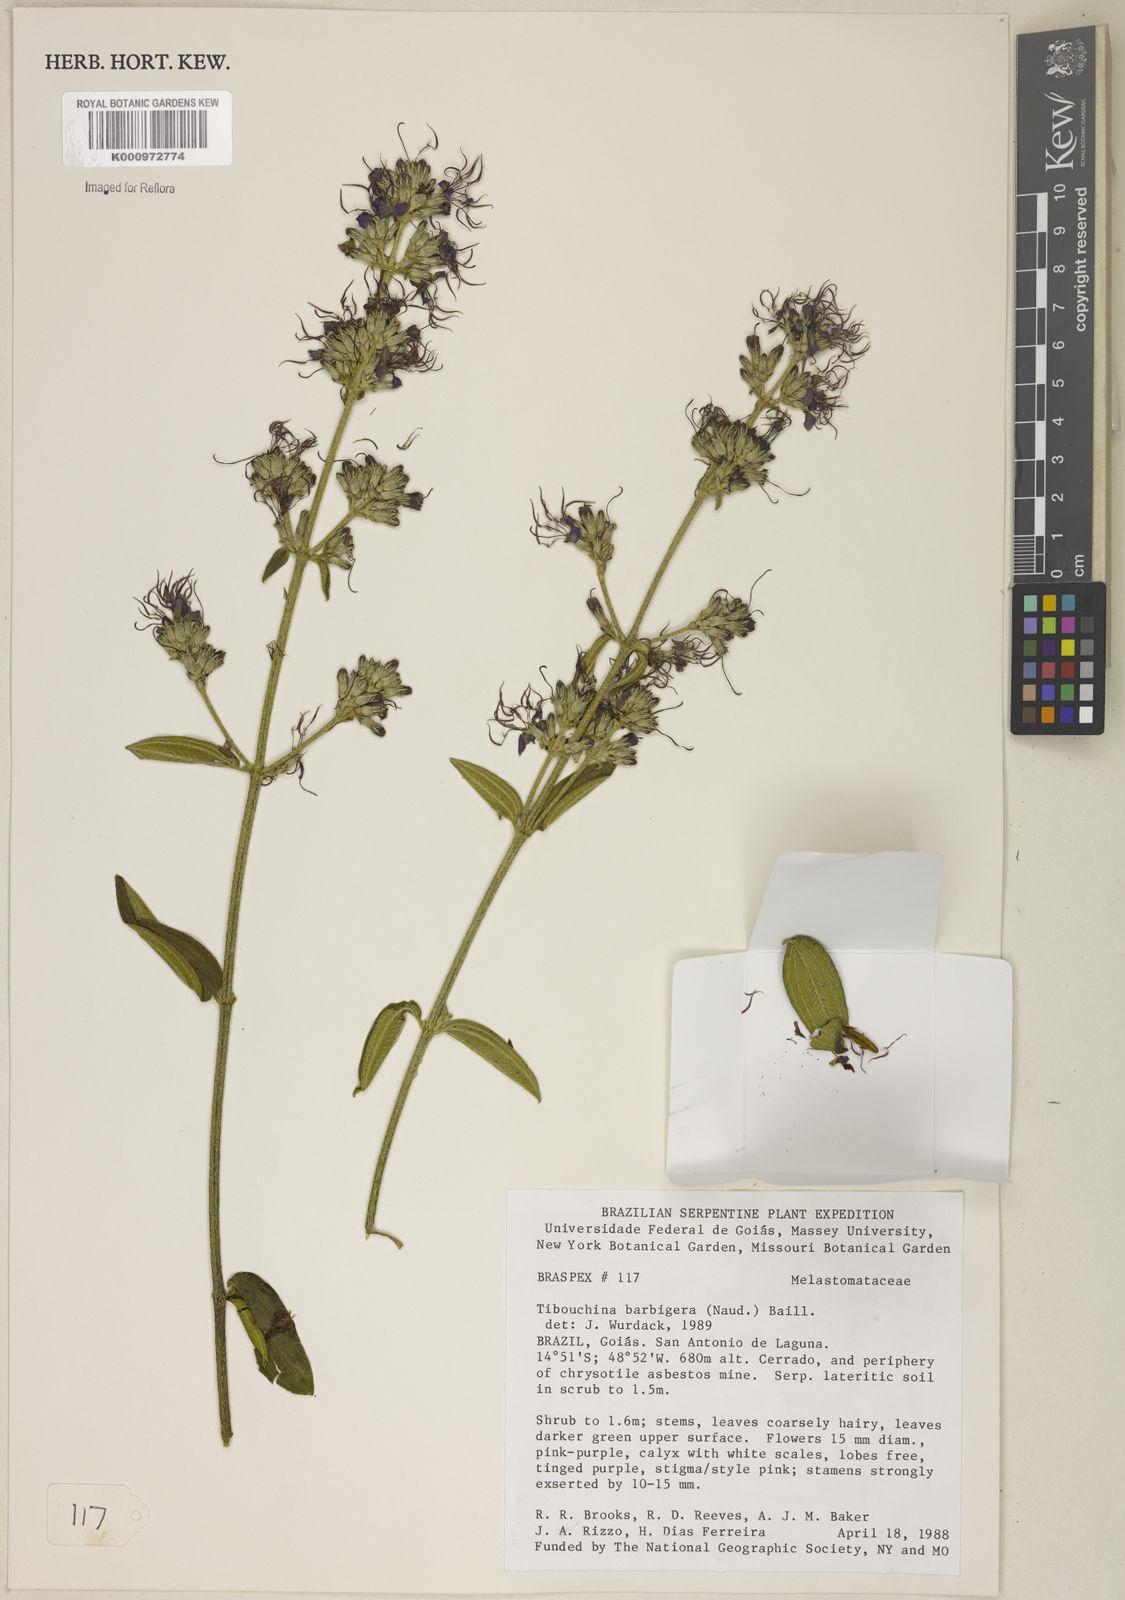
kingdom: Plantae
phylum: Tracheophyta
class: Magnoliopsida
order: Myrtales
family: Melastomataceae
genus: Pleroma
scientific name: Pleroma barbigerum
